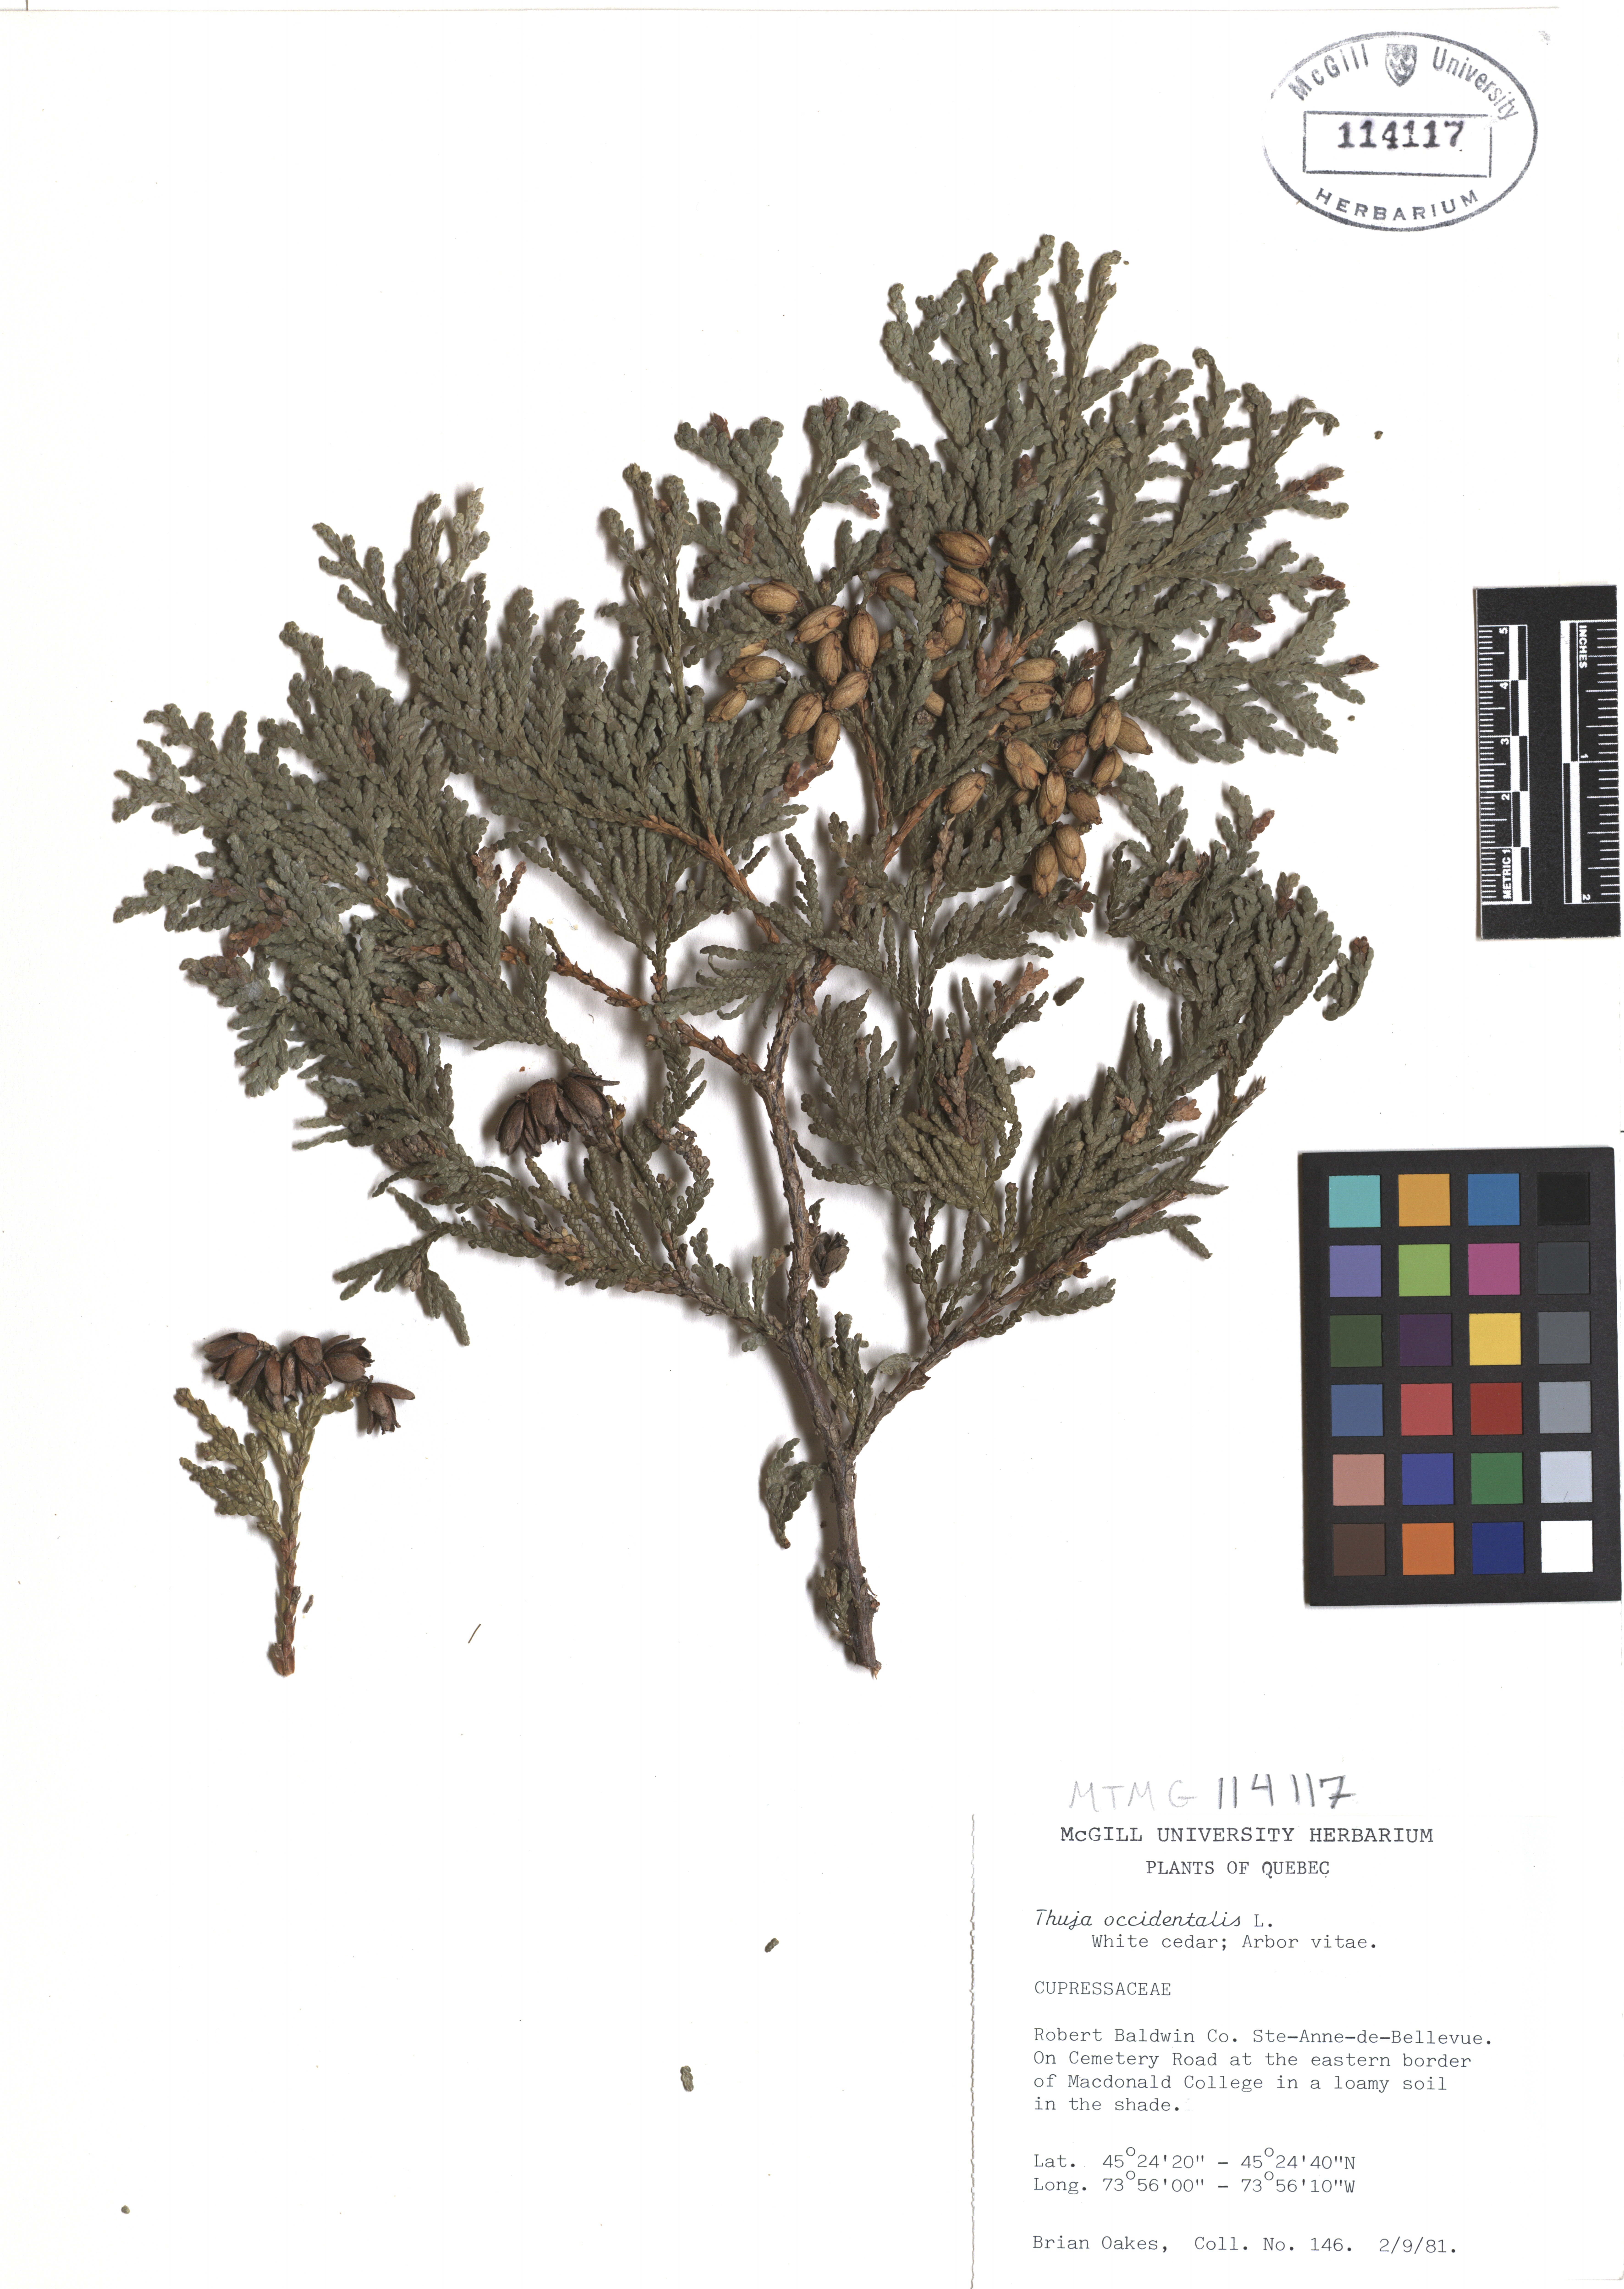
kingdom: Plantae
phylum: Tracheophyta
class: Pinopsida
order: Pinales
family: Cupressaceae
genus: Thuja
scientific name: Thuja occidentalis
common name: Northern white-cedar
